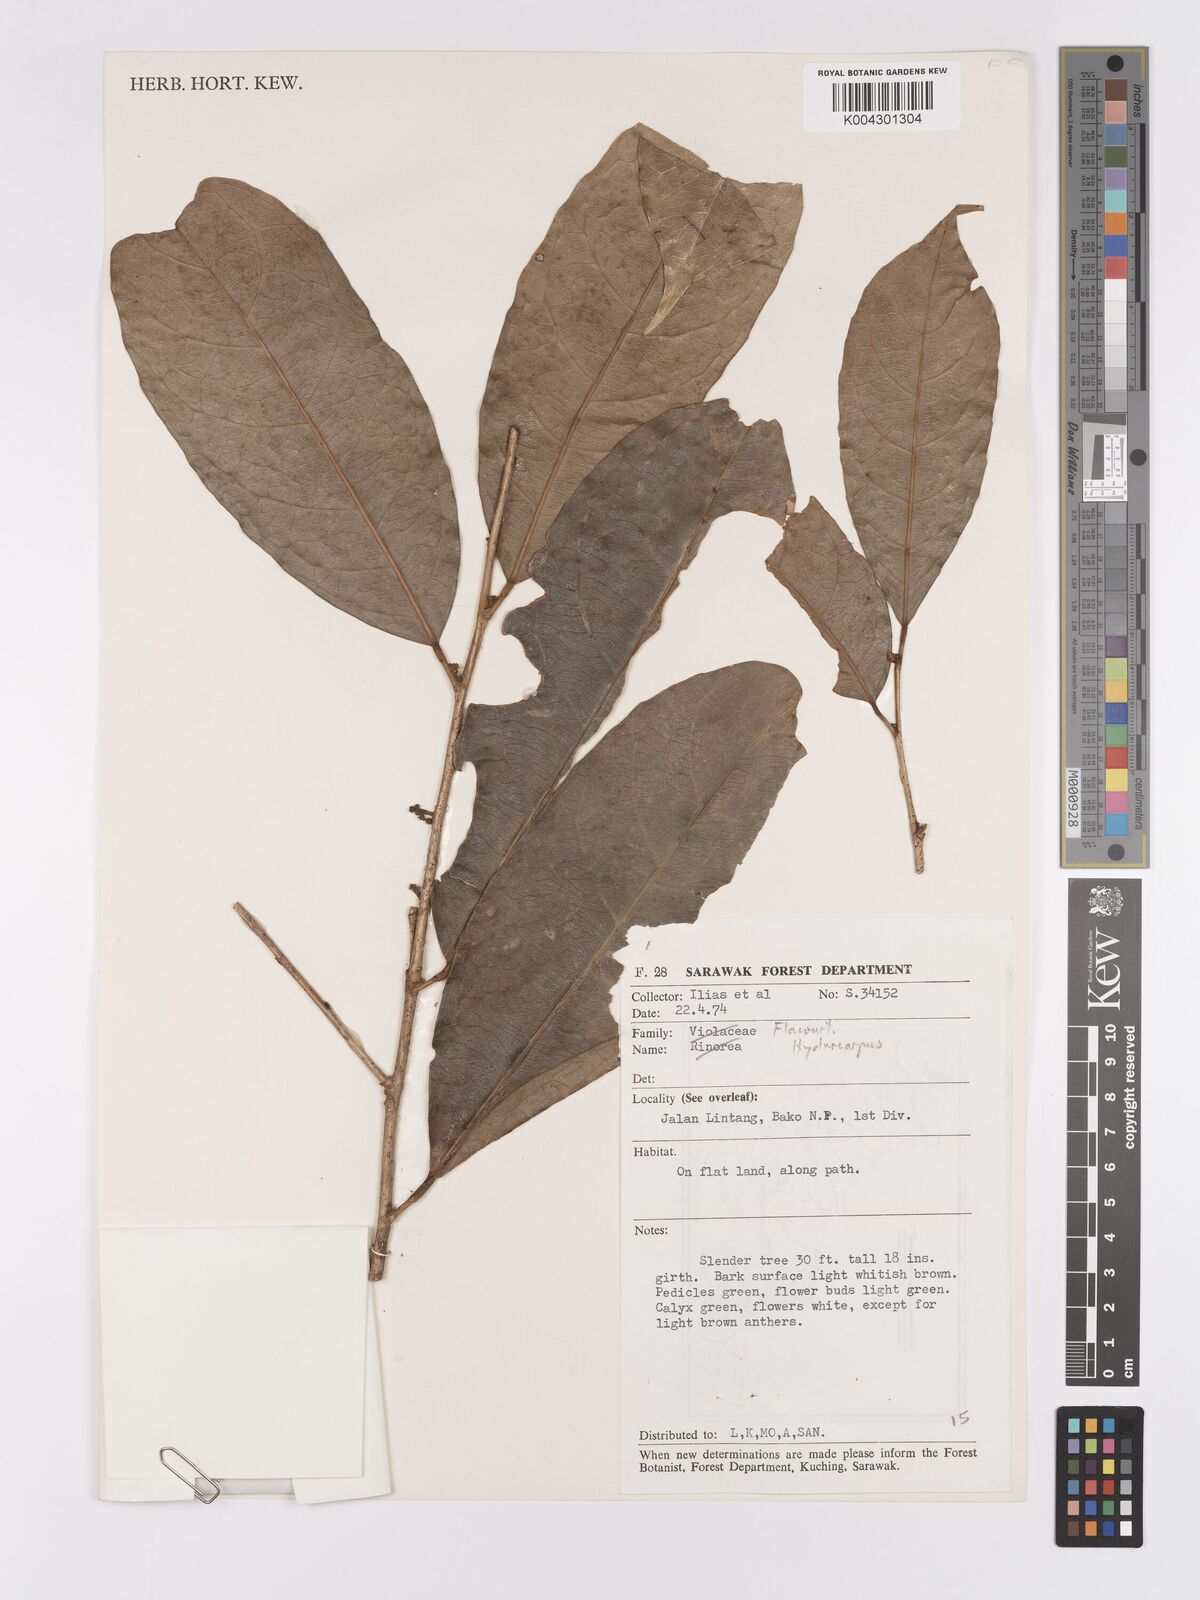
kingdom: Plantae
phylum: Tracheophyta
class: Magnoliopsida
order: Malpighiales
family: Achariaceae
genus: Hydnocarpus
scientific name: Hydnocarpus
